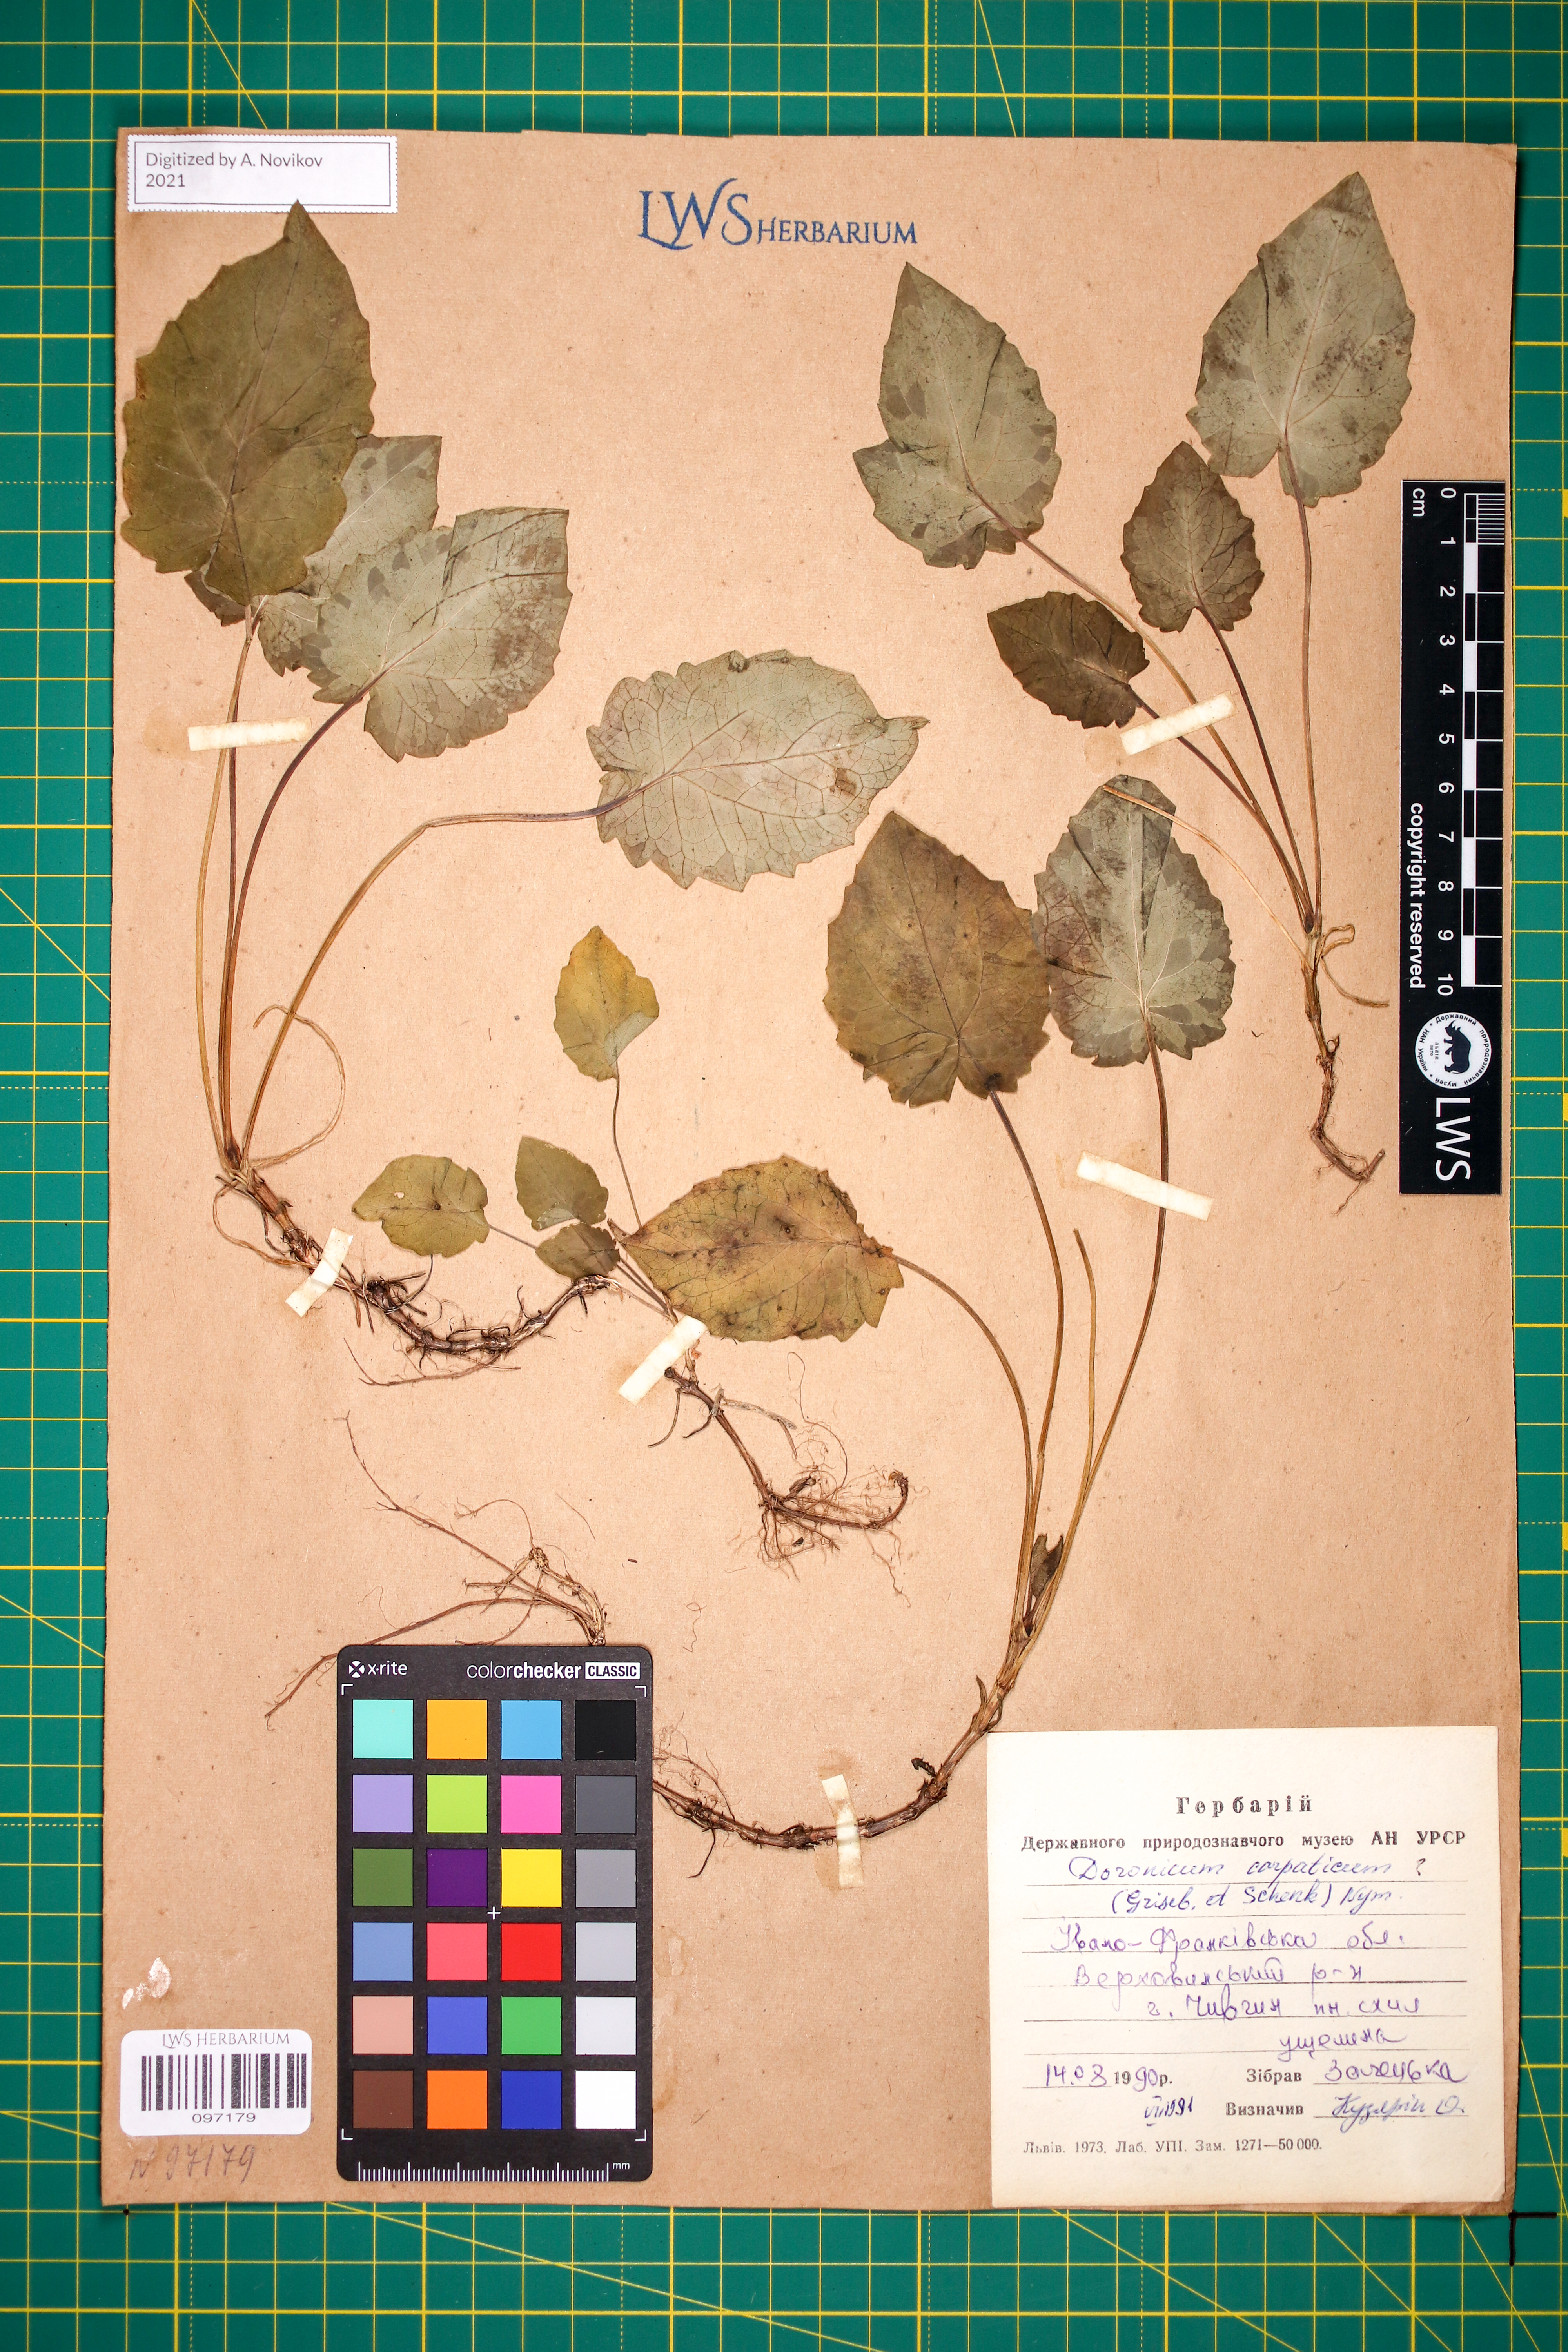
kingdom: Plantae
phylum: Tracheophyta
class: Magnoliopsida
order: Asterales
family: Asteraceae
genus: Doronicum
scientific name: Doronicum carpaticum
